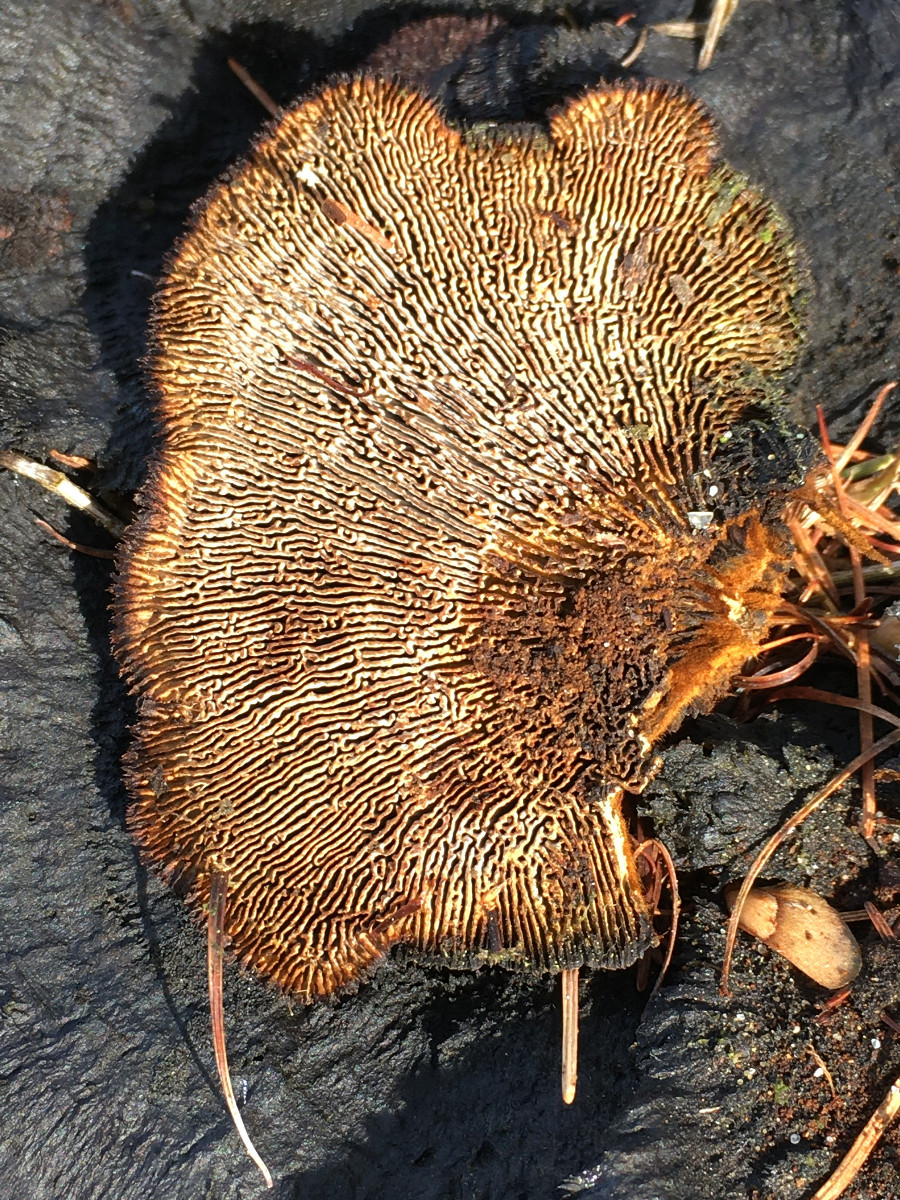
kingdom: Fungi
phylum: Basidiomycota
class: Agaricomycetes
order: Gloeophyllales
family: Gloeophyllaceae
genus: Gloeophyllum
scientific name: Gloeophyllum sepiarium
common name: fyrre-korkhat
